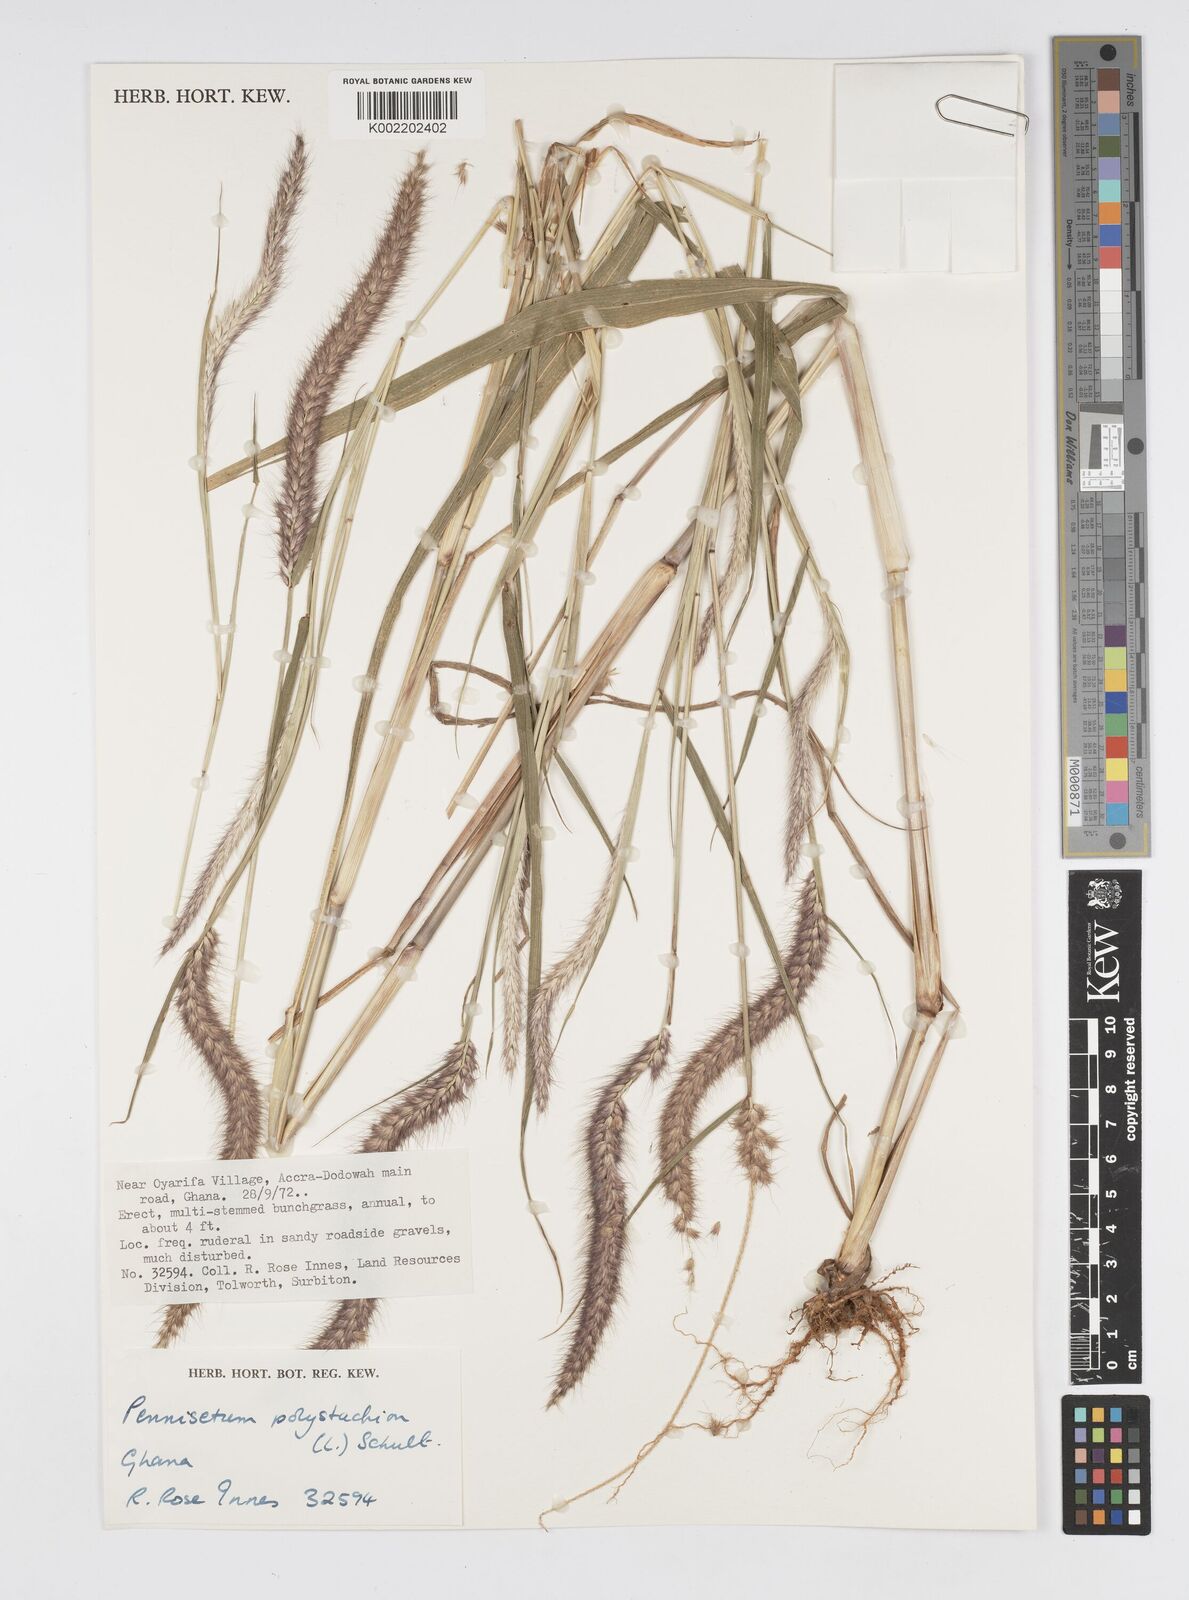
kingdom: Plantae
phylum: Tracheophyta
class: Liliopsida
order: Poales
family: Poaceae
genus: Setaria
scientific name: Setaria parviflora
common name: Knotroot bristle-grass
